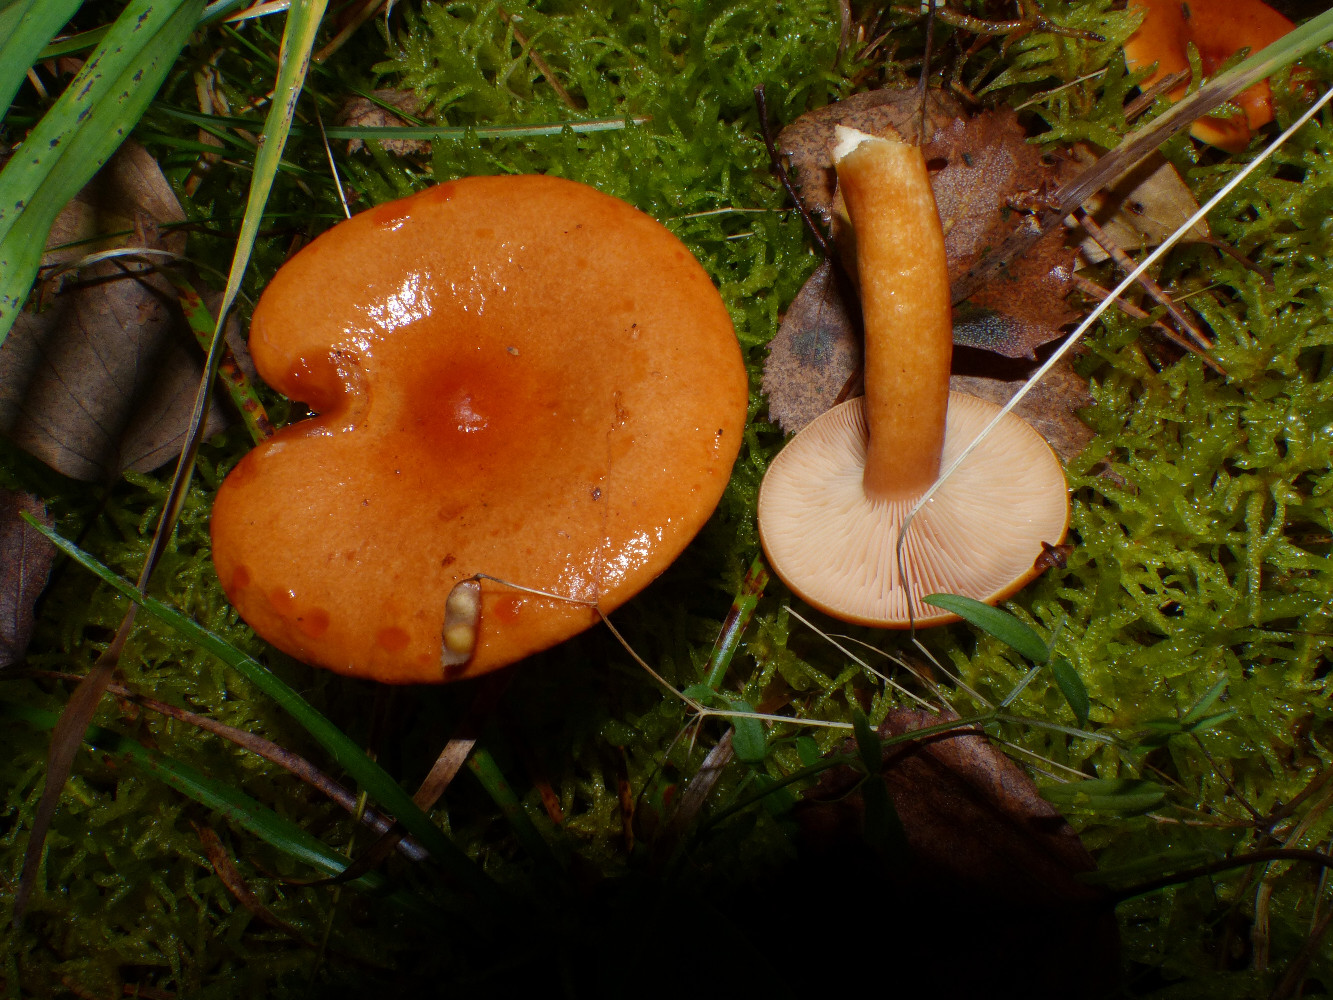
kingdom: Fungi
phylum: Basidiomycota
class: Agaricomycetes
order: Russulales
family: Russulaceae
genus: Lactarius
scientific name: Lactarius aurantiacus
